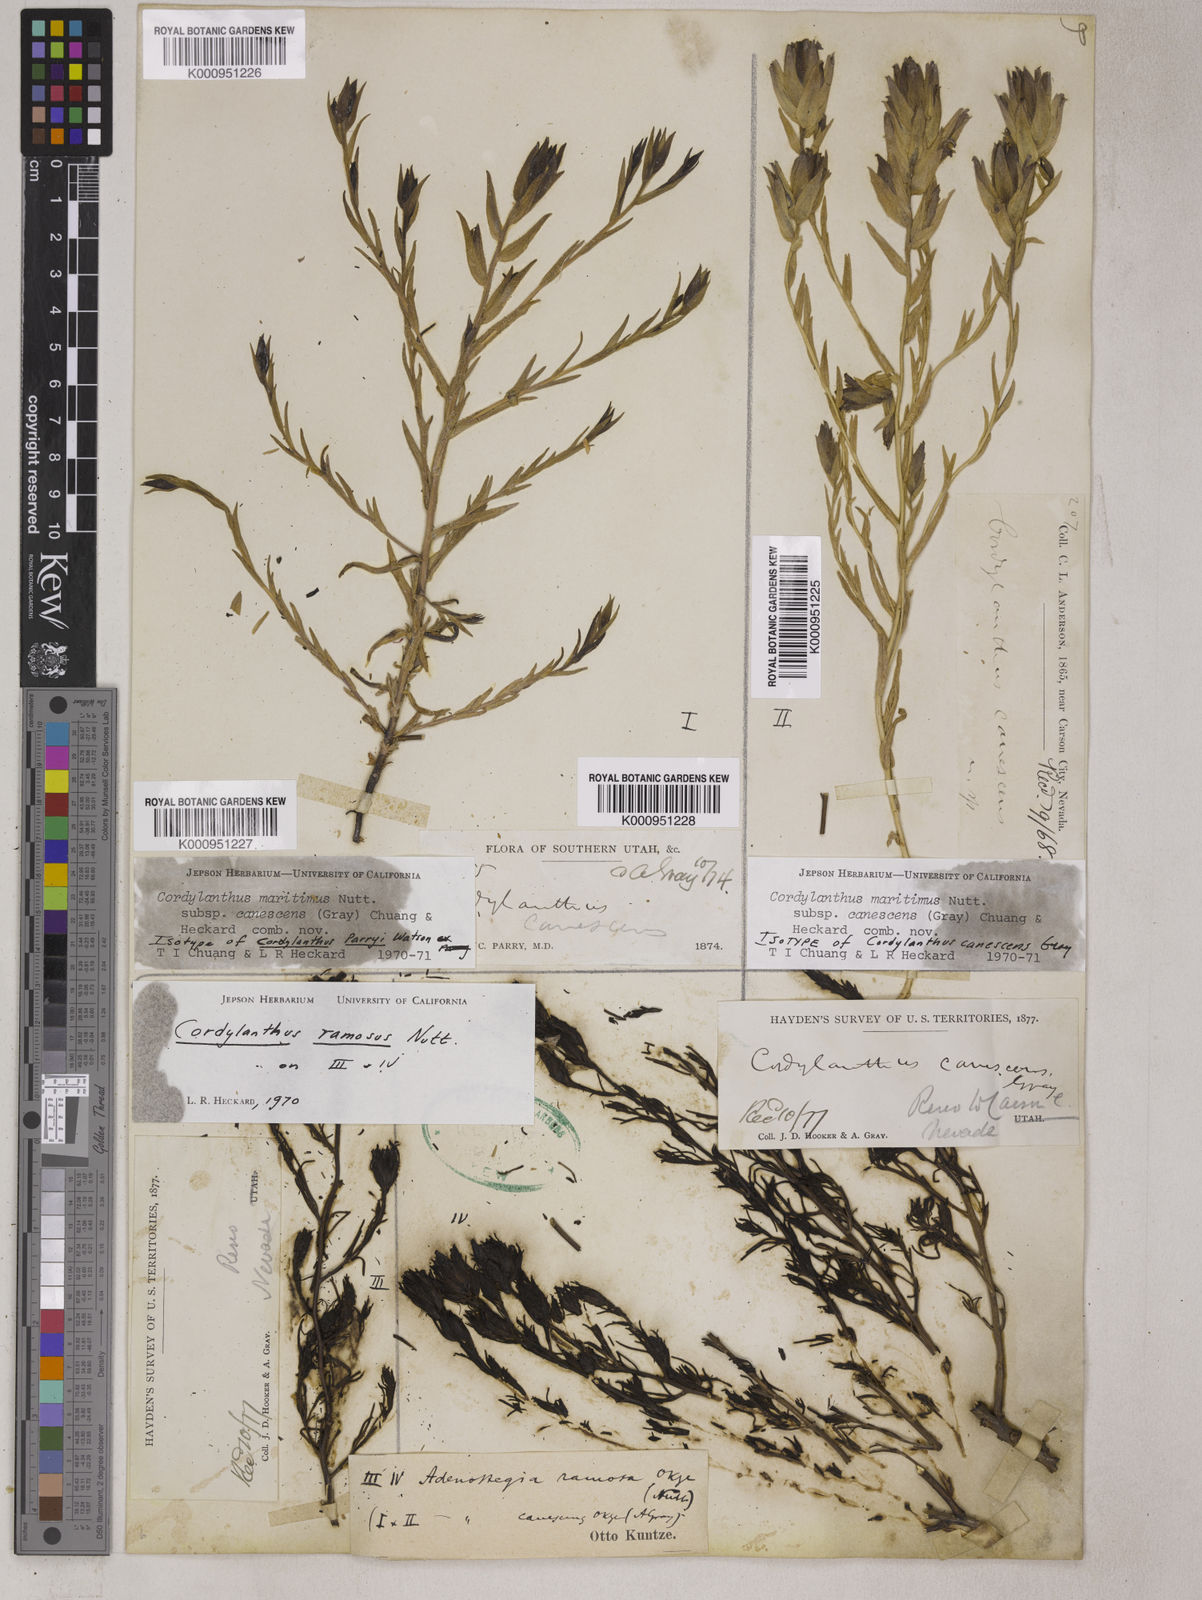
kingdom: Plantae
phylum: Tracheophyta
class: Magnoliopsida
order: Lamiales
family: Orobanchaceae
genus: Chloropyron
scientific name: Chloropyron maritimum
